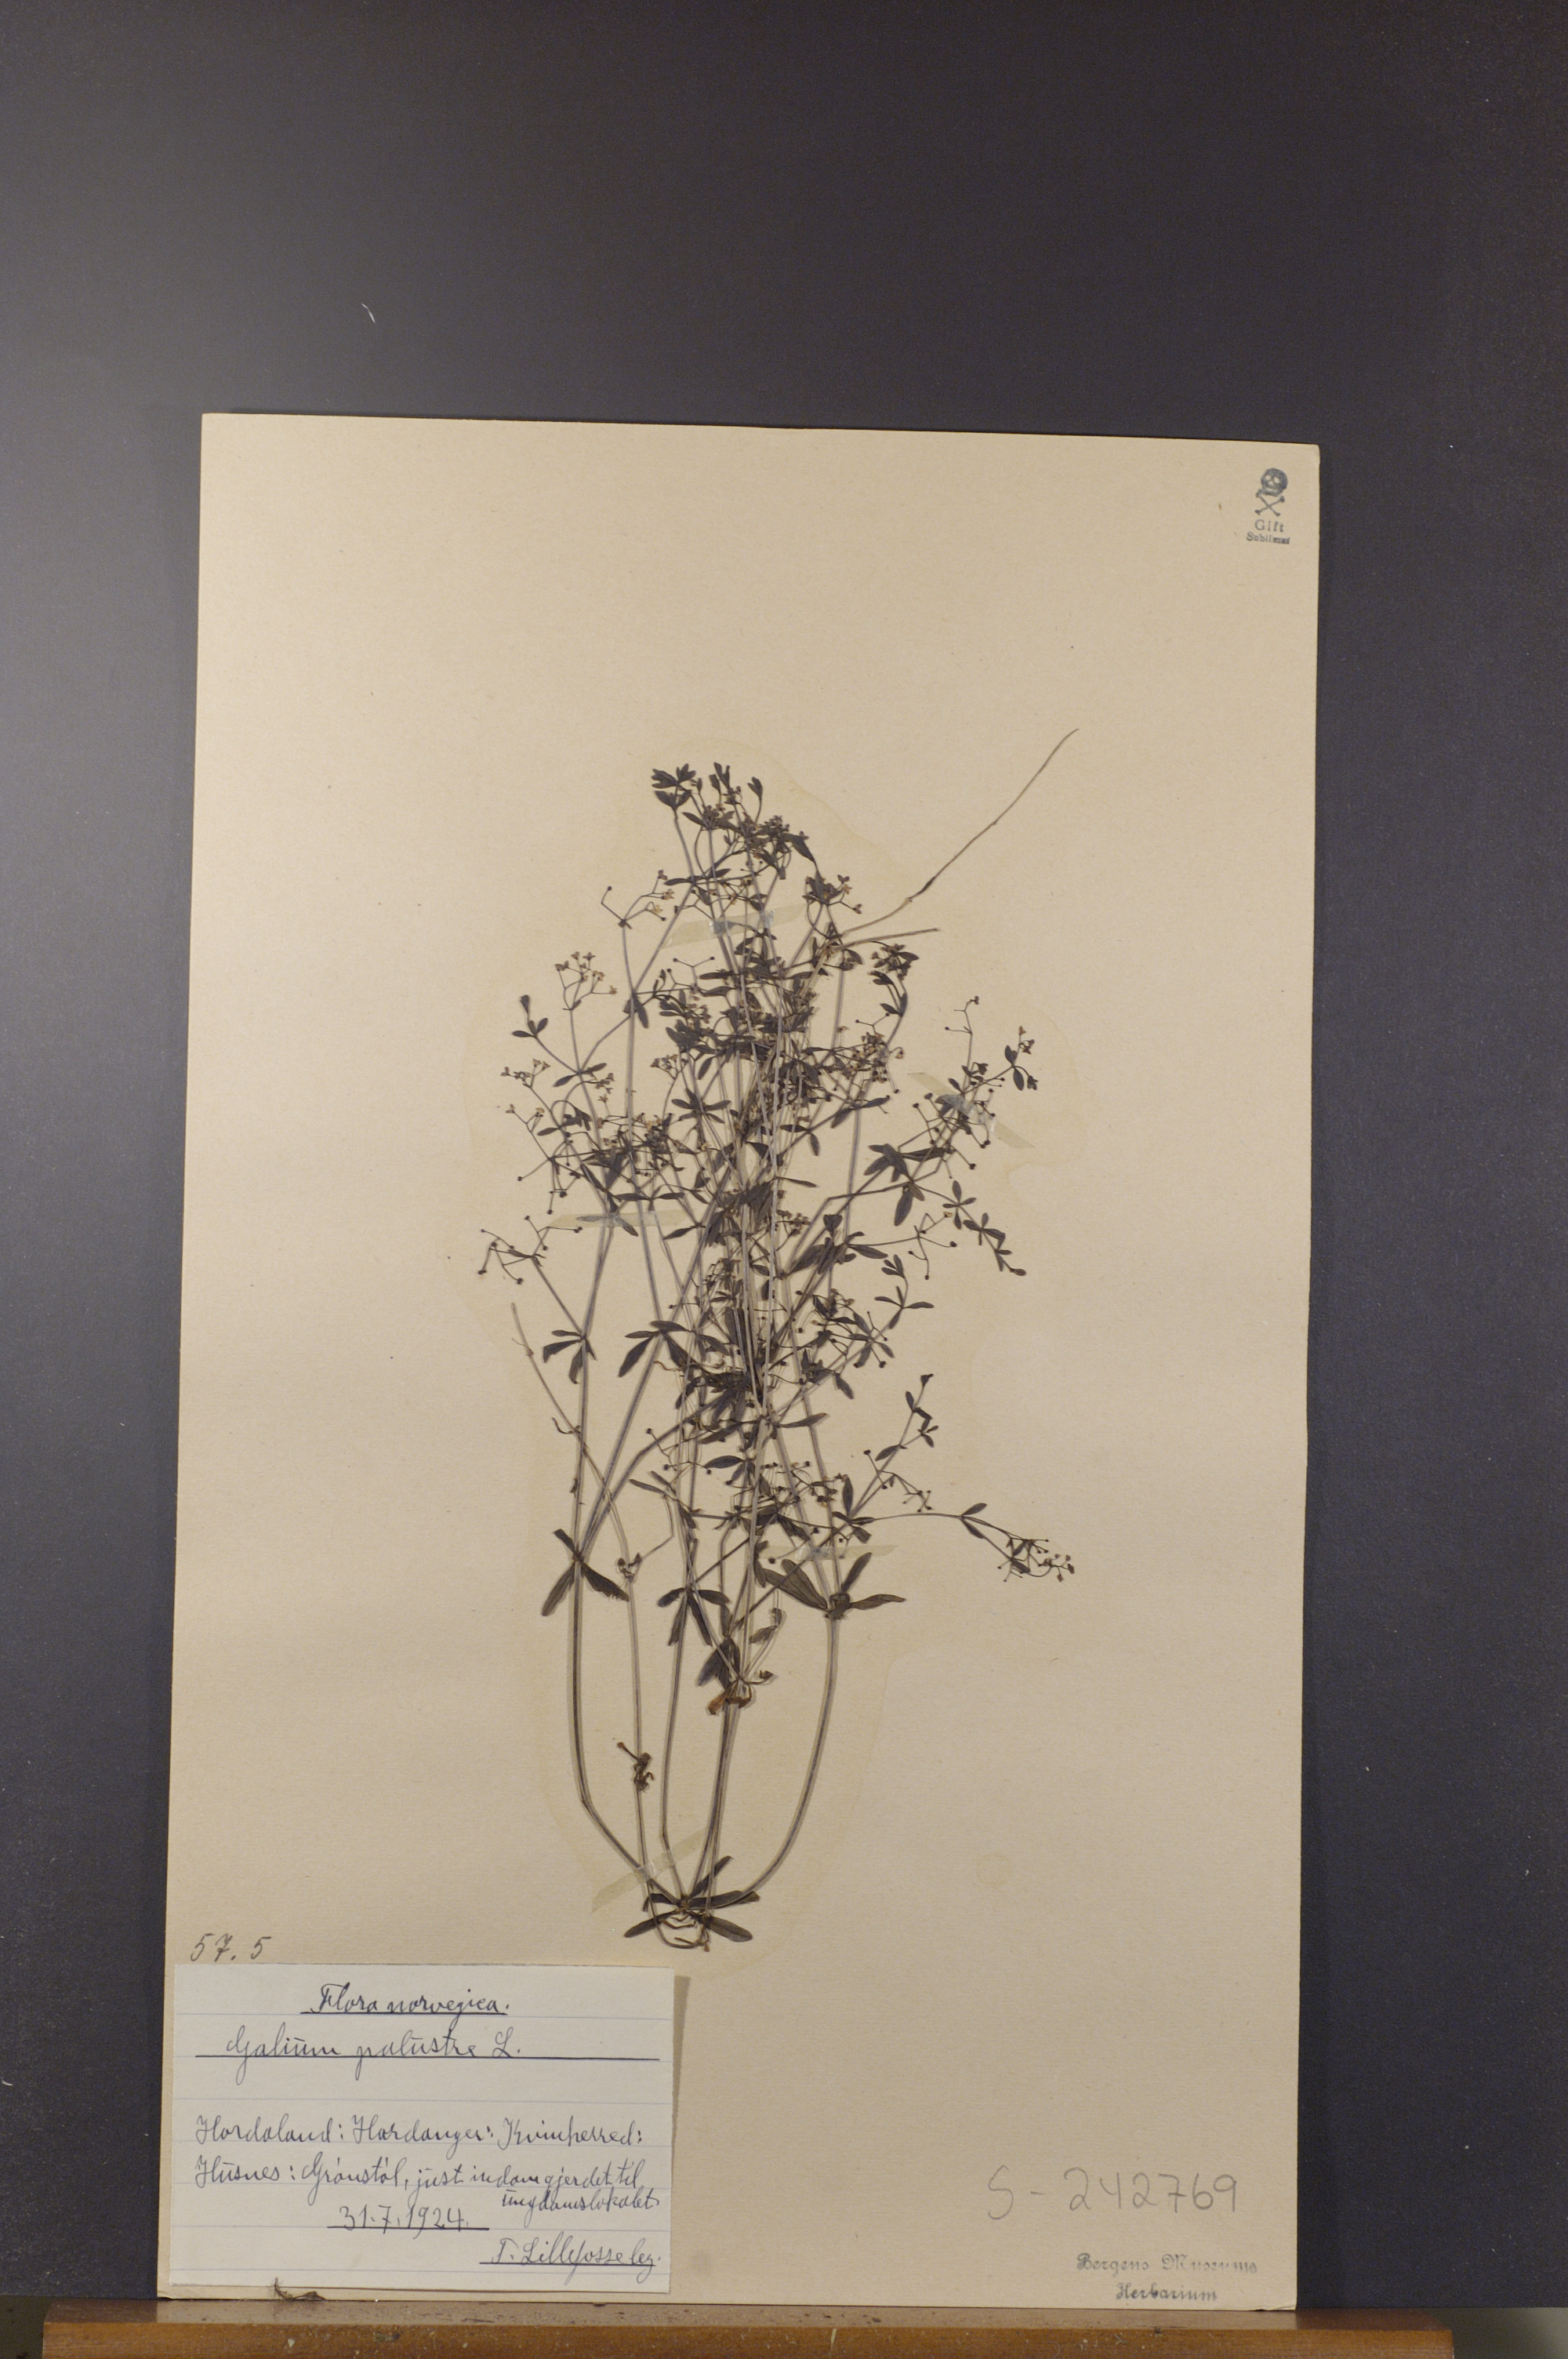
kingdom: Plantae
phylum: Tracheophyta
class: Magnoliopsida
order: Gentianales
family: Rubiaceae
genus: Galium
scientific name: Galium palustre
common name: Common marsh-bedstraw
